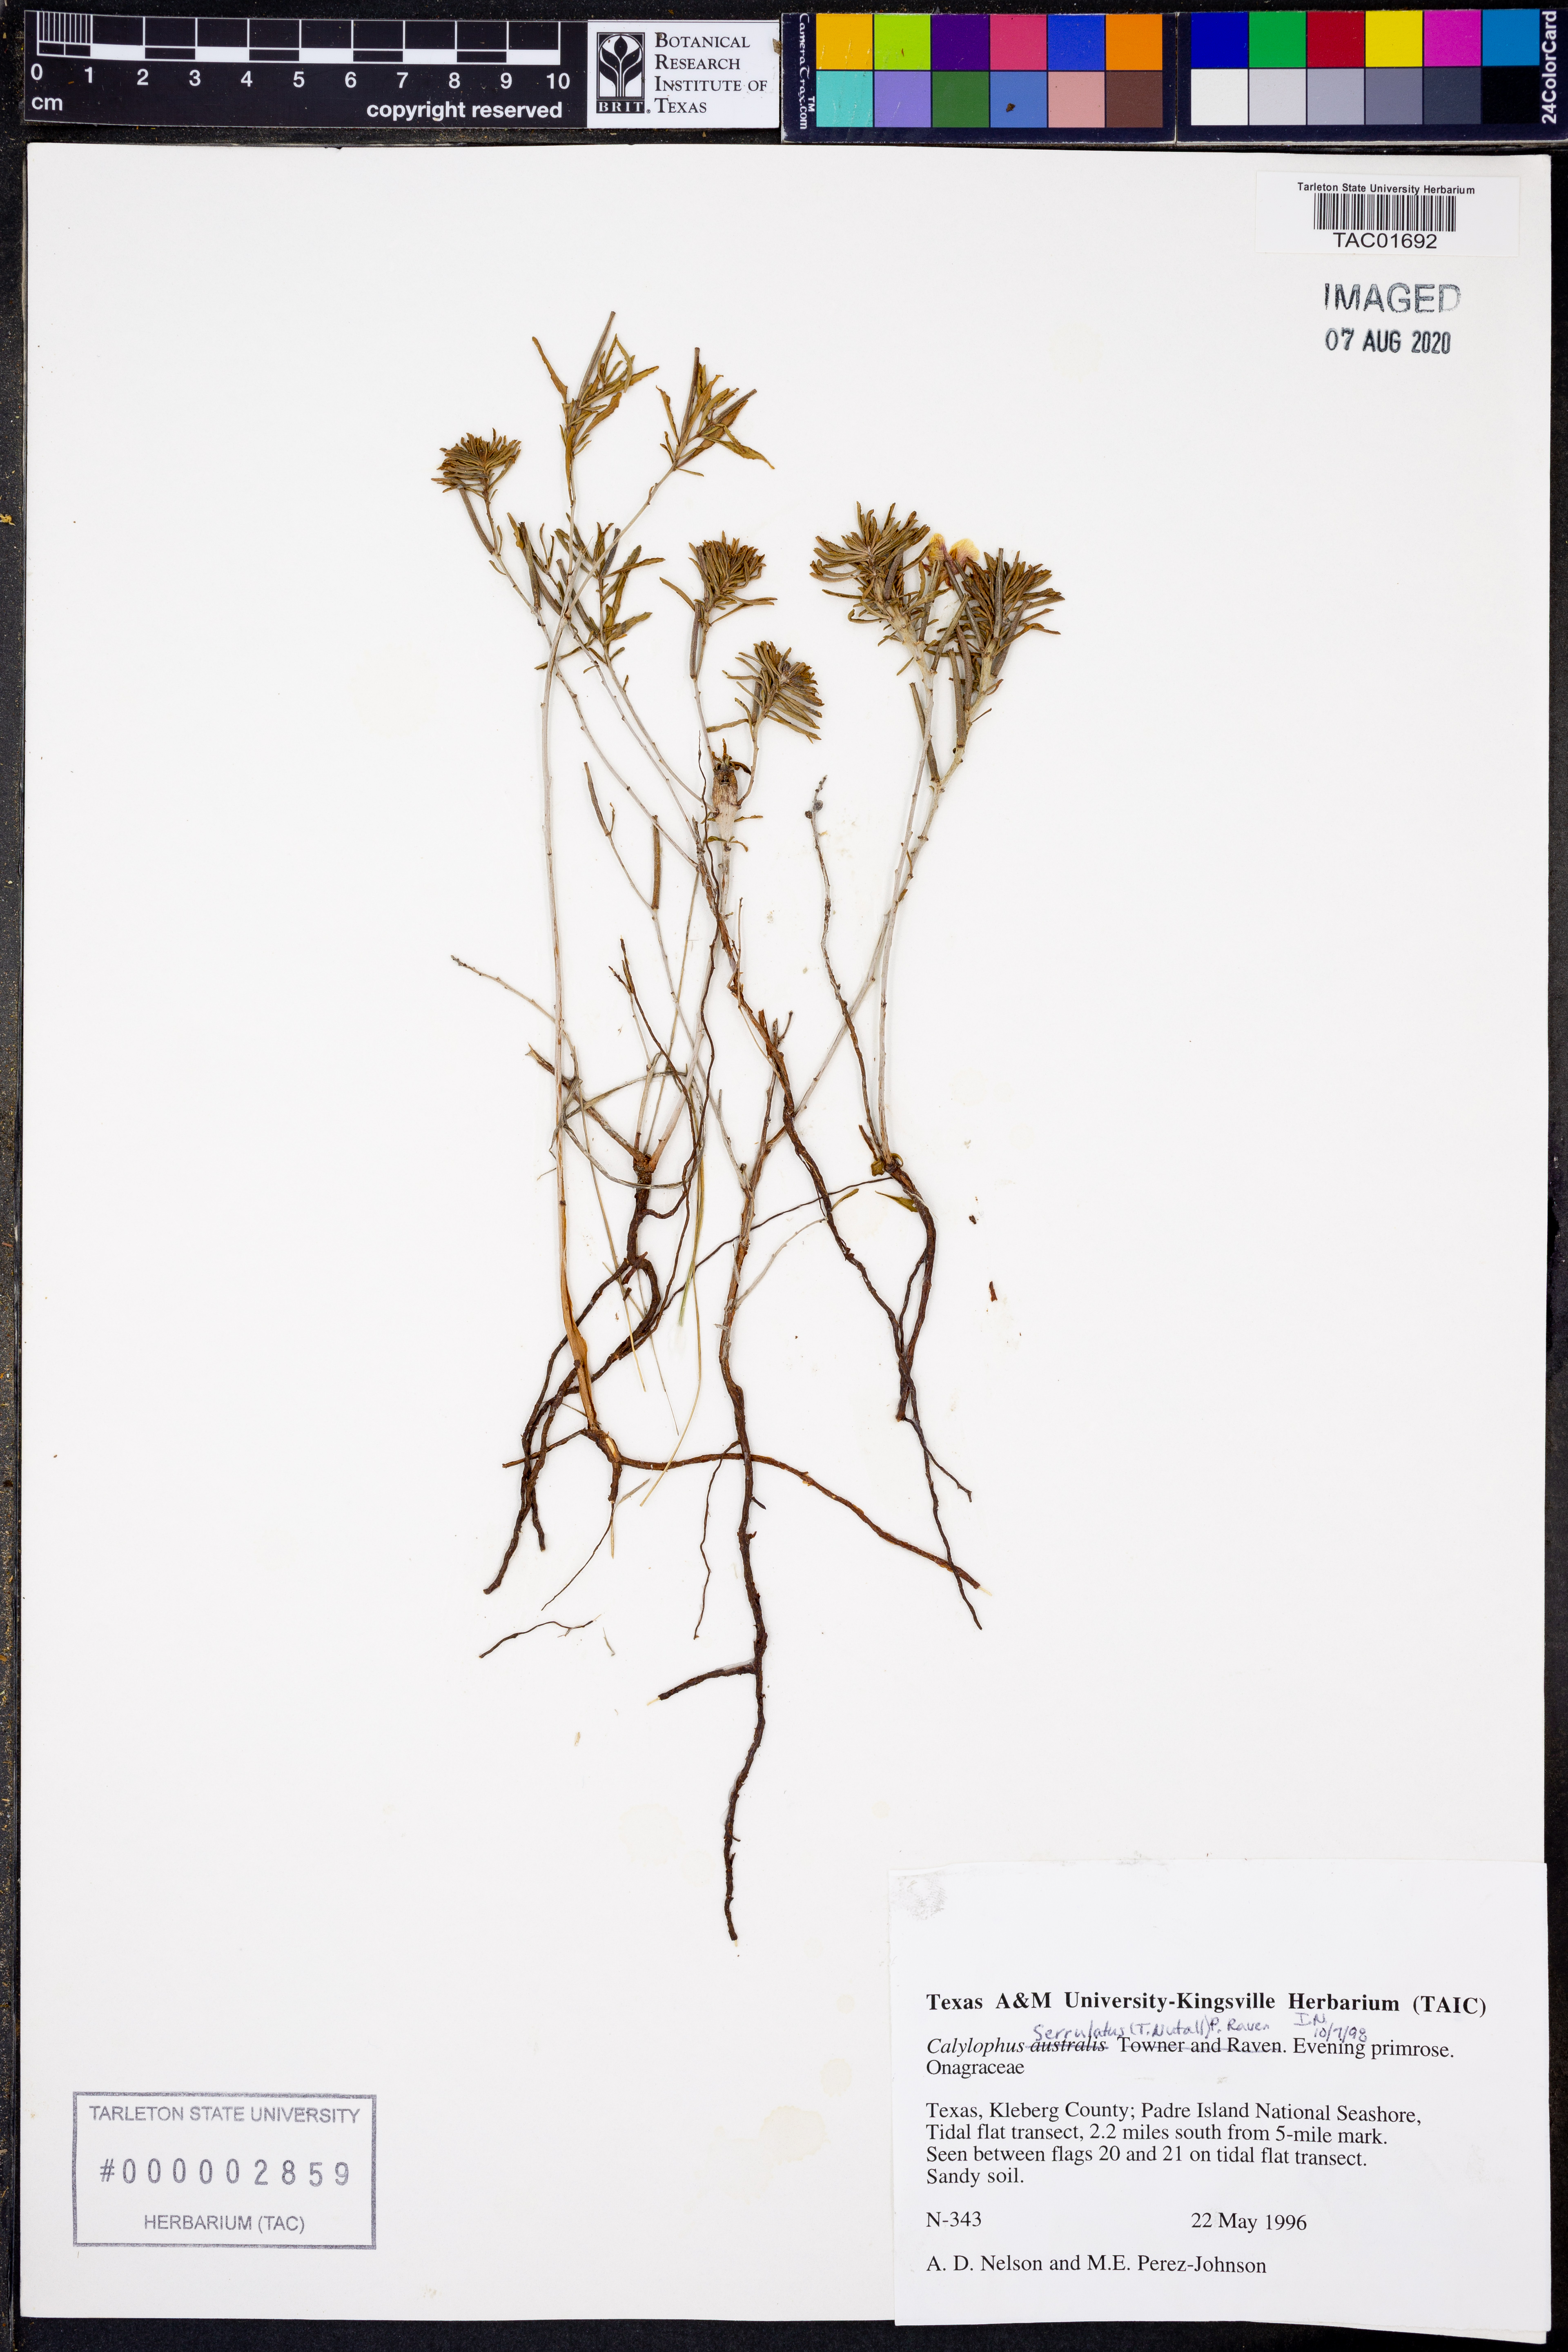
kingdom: Plantae
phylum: Tracheophyta
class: Magnoliopsida
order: Myrtales
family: Onagraceae
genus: Oenothera
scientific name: Oenothera serrulata
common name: Half-shrub calylophus
